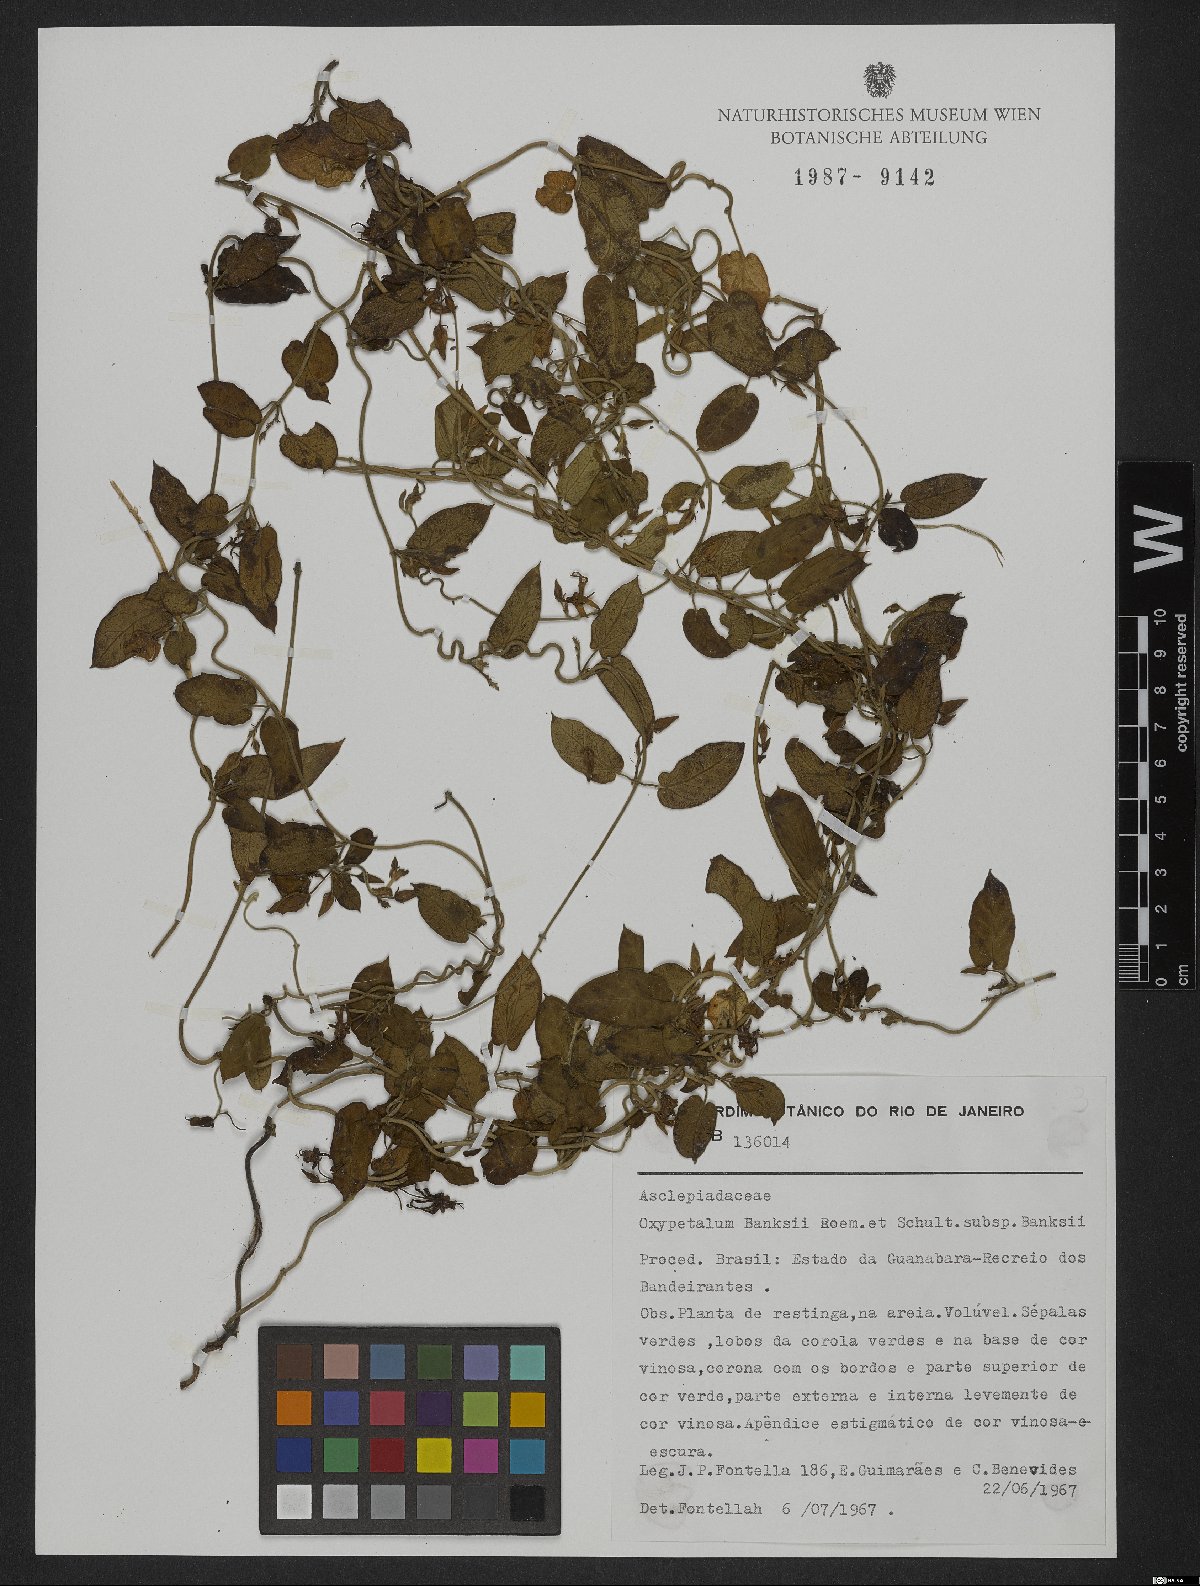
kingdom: Plantae
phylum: Tracheophyta
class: Magnoliopsida
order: Gentianales
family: Apocynaceae
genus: Oxypetalum
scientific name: Oxypetalum banksii
